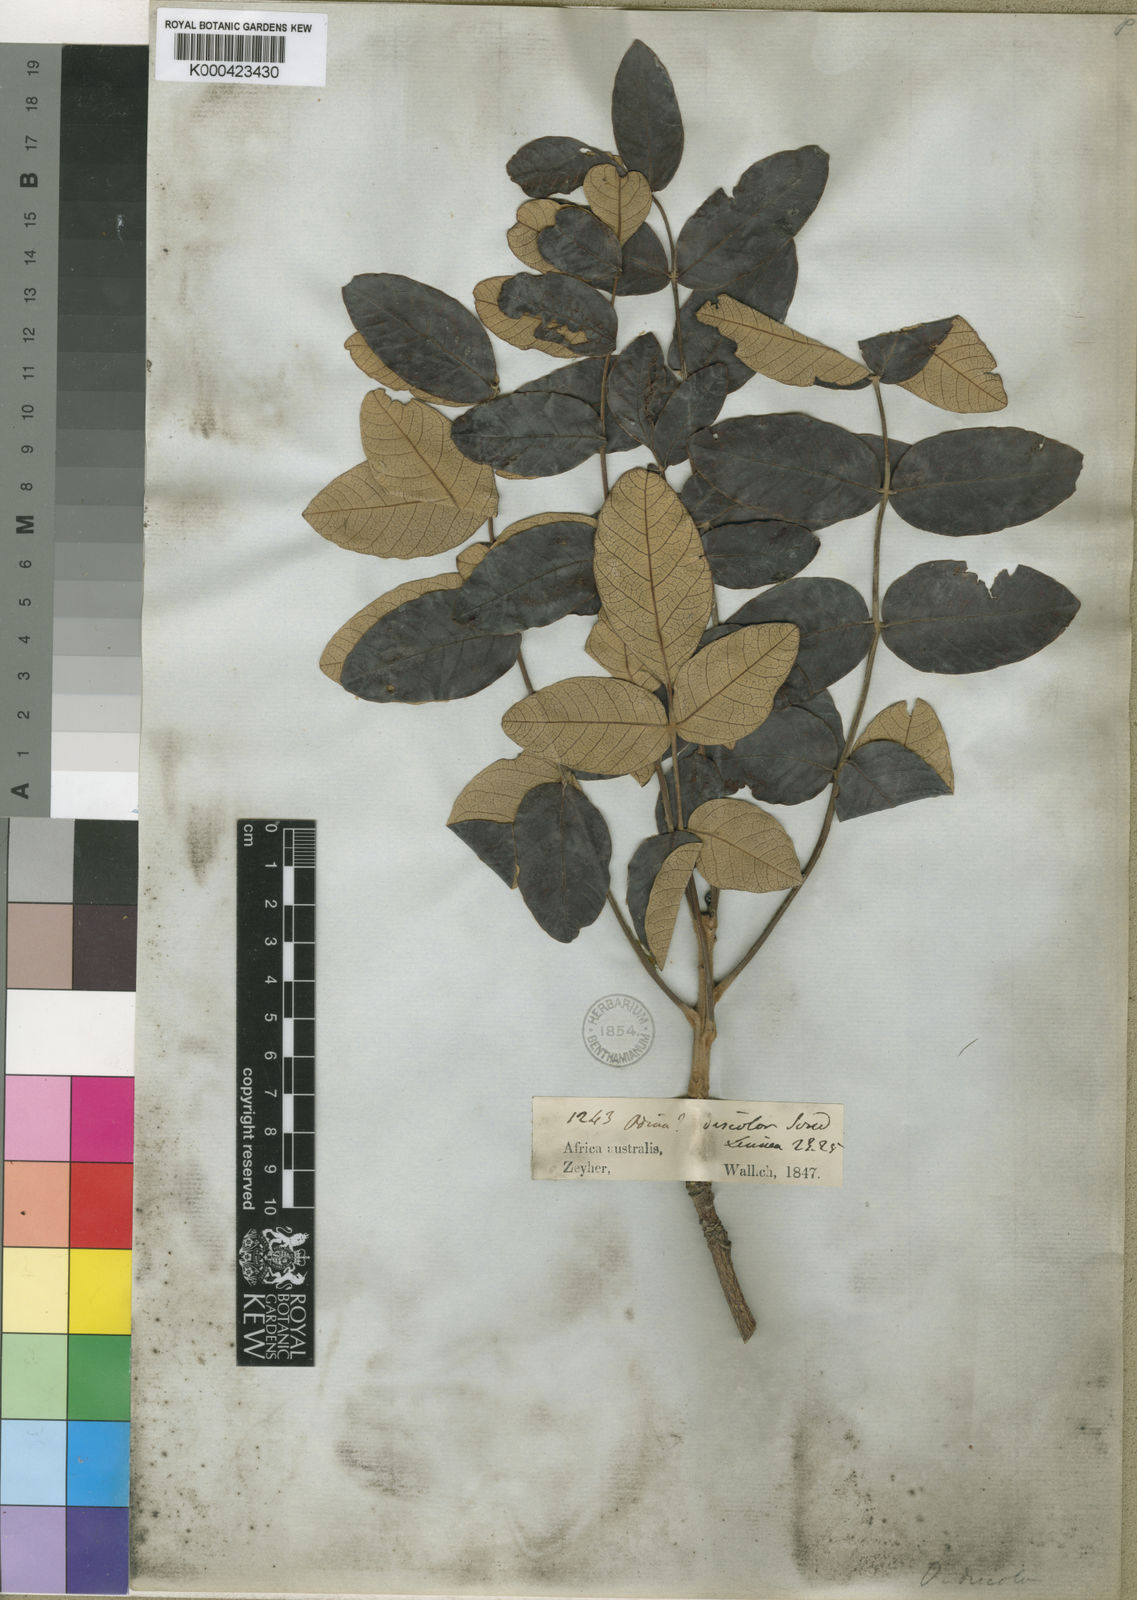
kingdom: Plantae
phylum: Tracheophyta
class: Magnoliopsida
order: Sapindales
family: Anacardiaceae
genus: Lannea
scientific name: Lannea discolor
